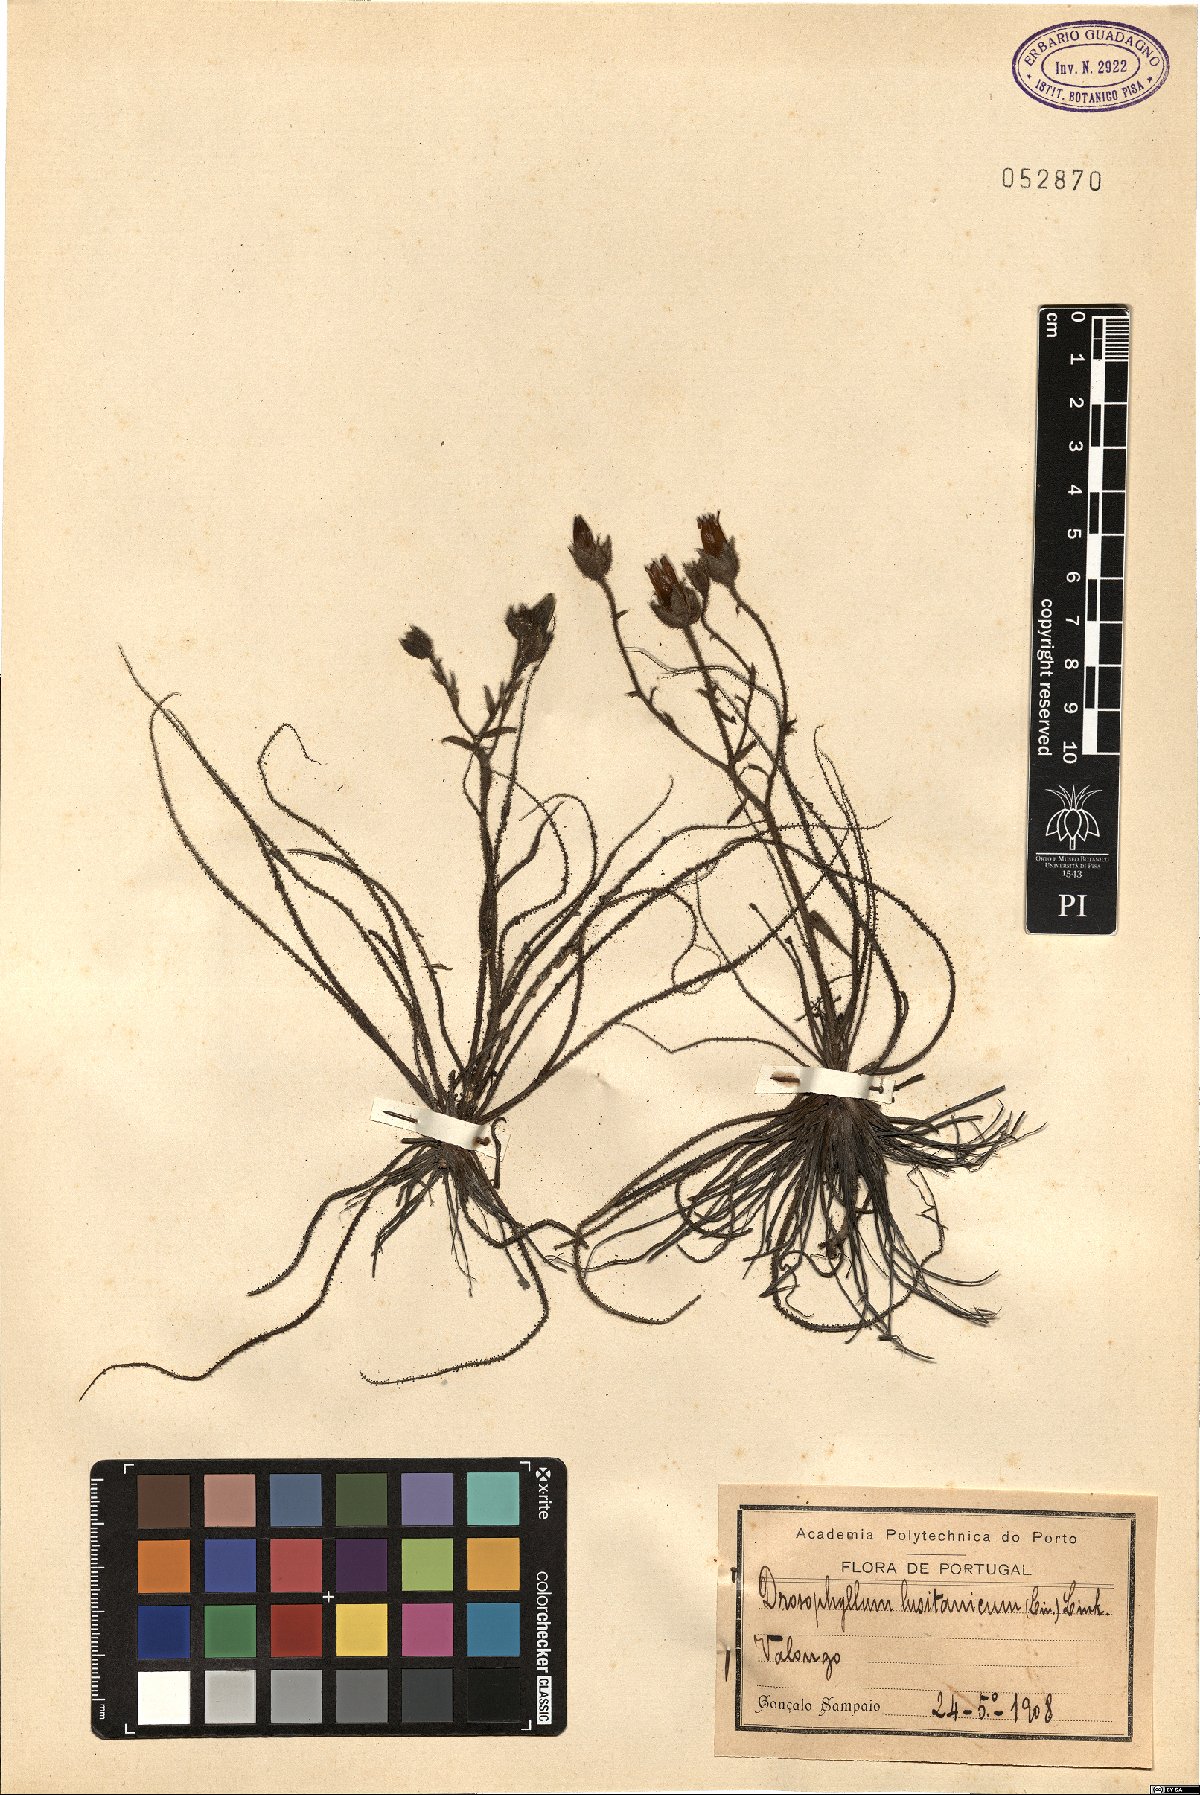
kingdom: Plantae
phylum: Tracheophyta
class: Magnoliopsida
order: Caryophyllales
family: Drosophyllaceae
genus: Drosophyllum
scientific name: Drosophyllum lusitanicum
